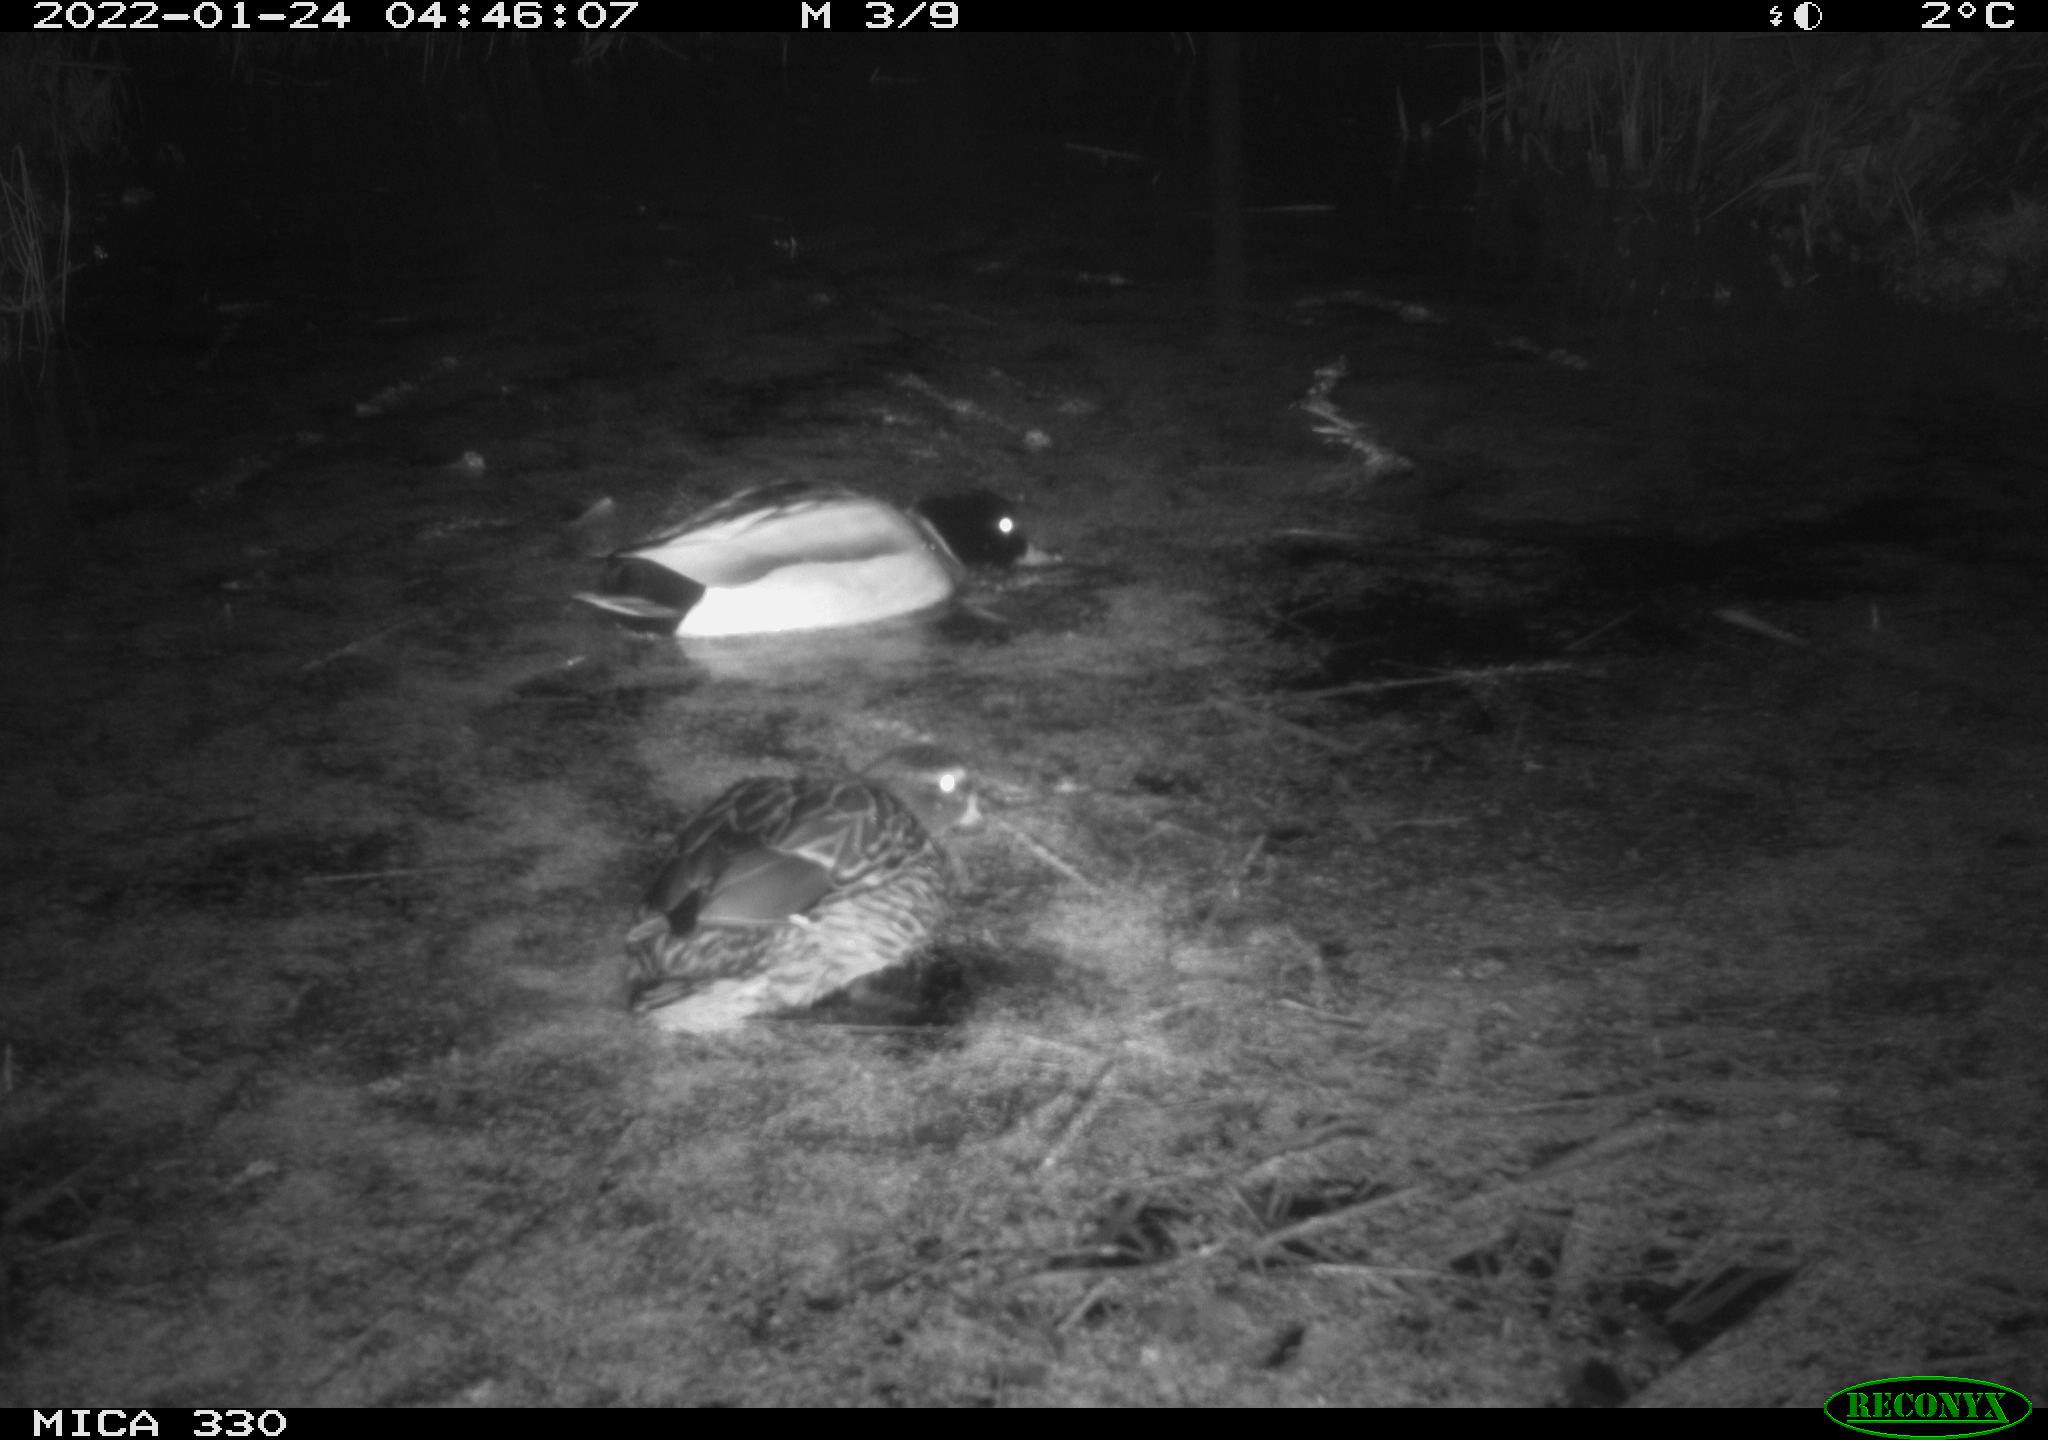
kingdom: Animalia
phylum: Chordata
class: Aves
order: Anseriformes
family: Anatidae
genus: Anas
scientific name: Anas platyrhynchos
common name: Mallard
